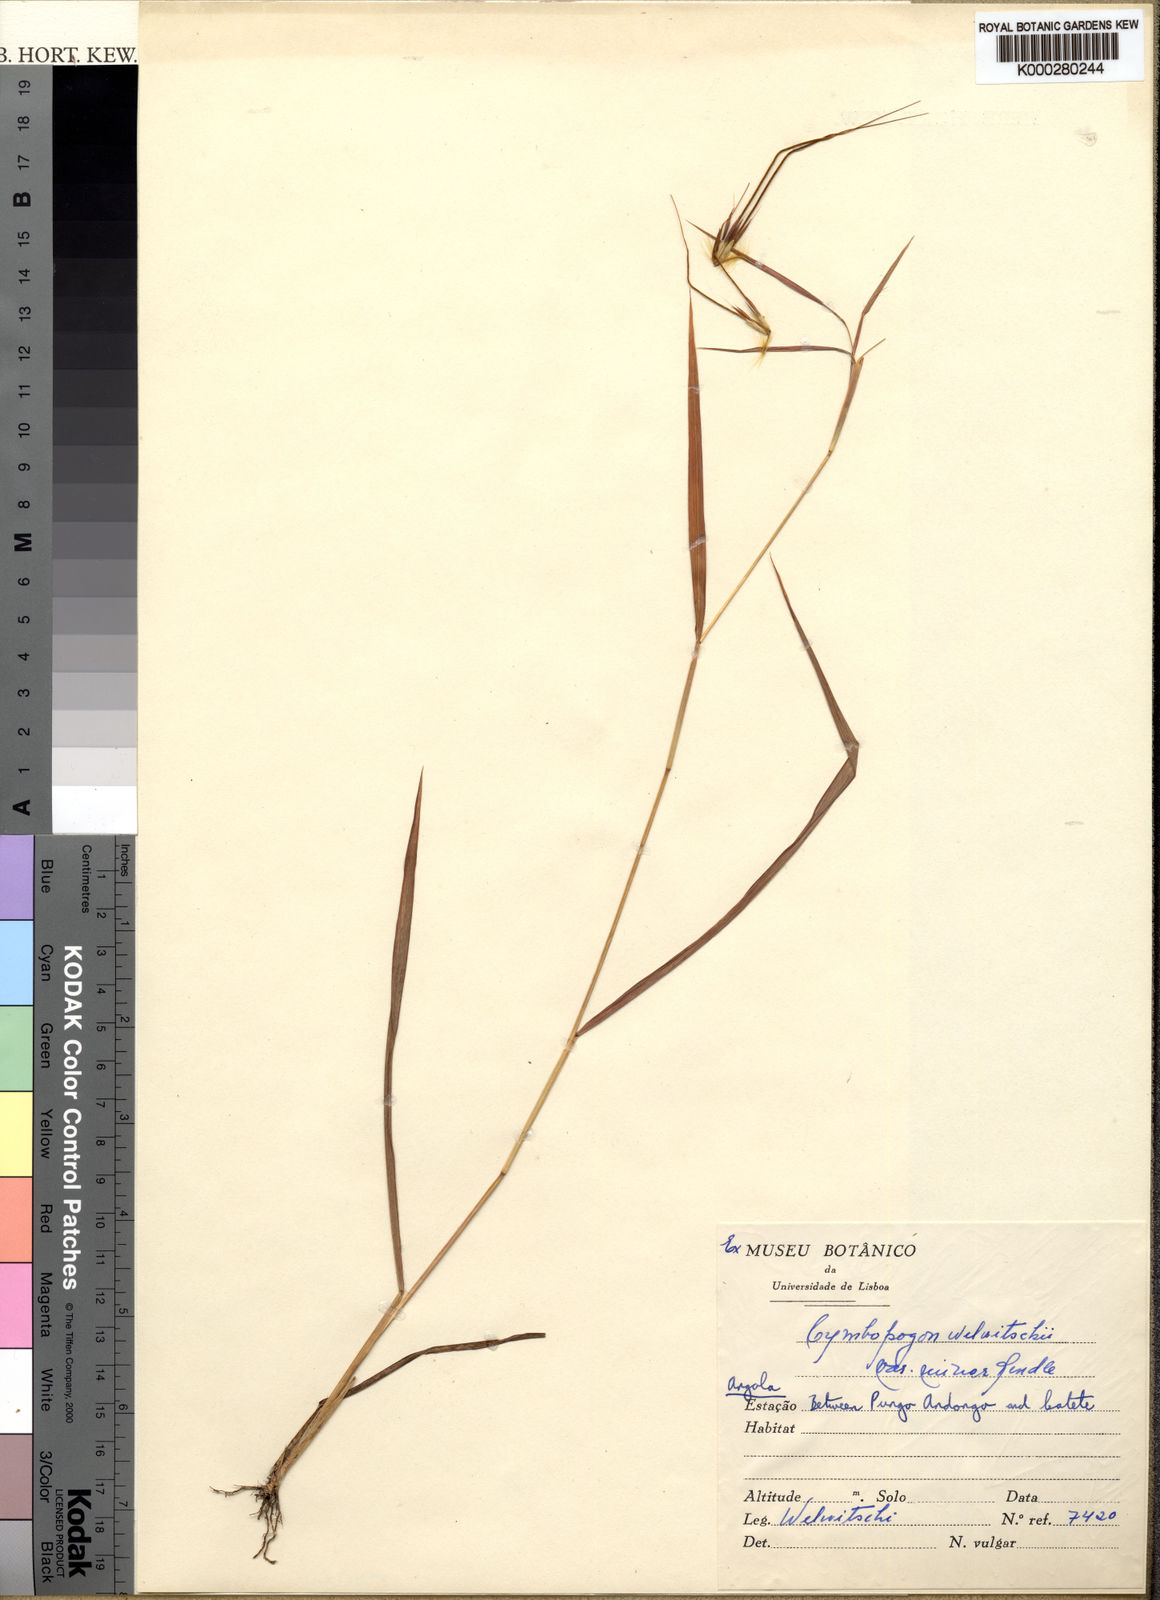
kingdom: Plantae
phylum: Tracheophyta
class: Liliopsida
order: Poales
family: Poaceae
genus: Hyparrhenia
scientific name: Hyparrhenia niariensis
